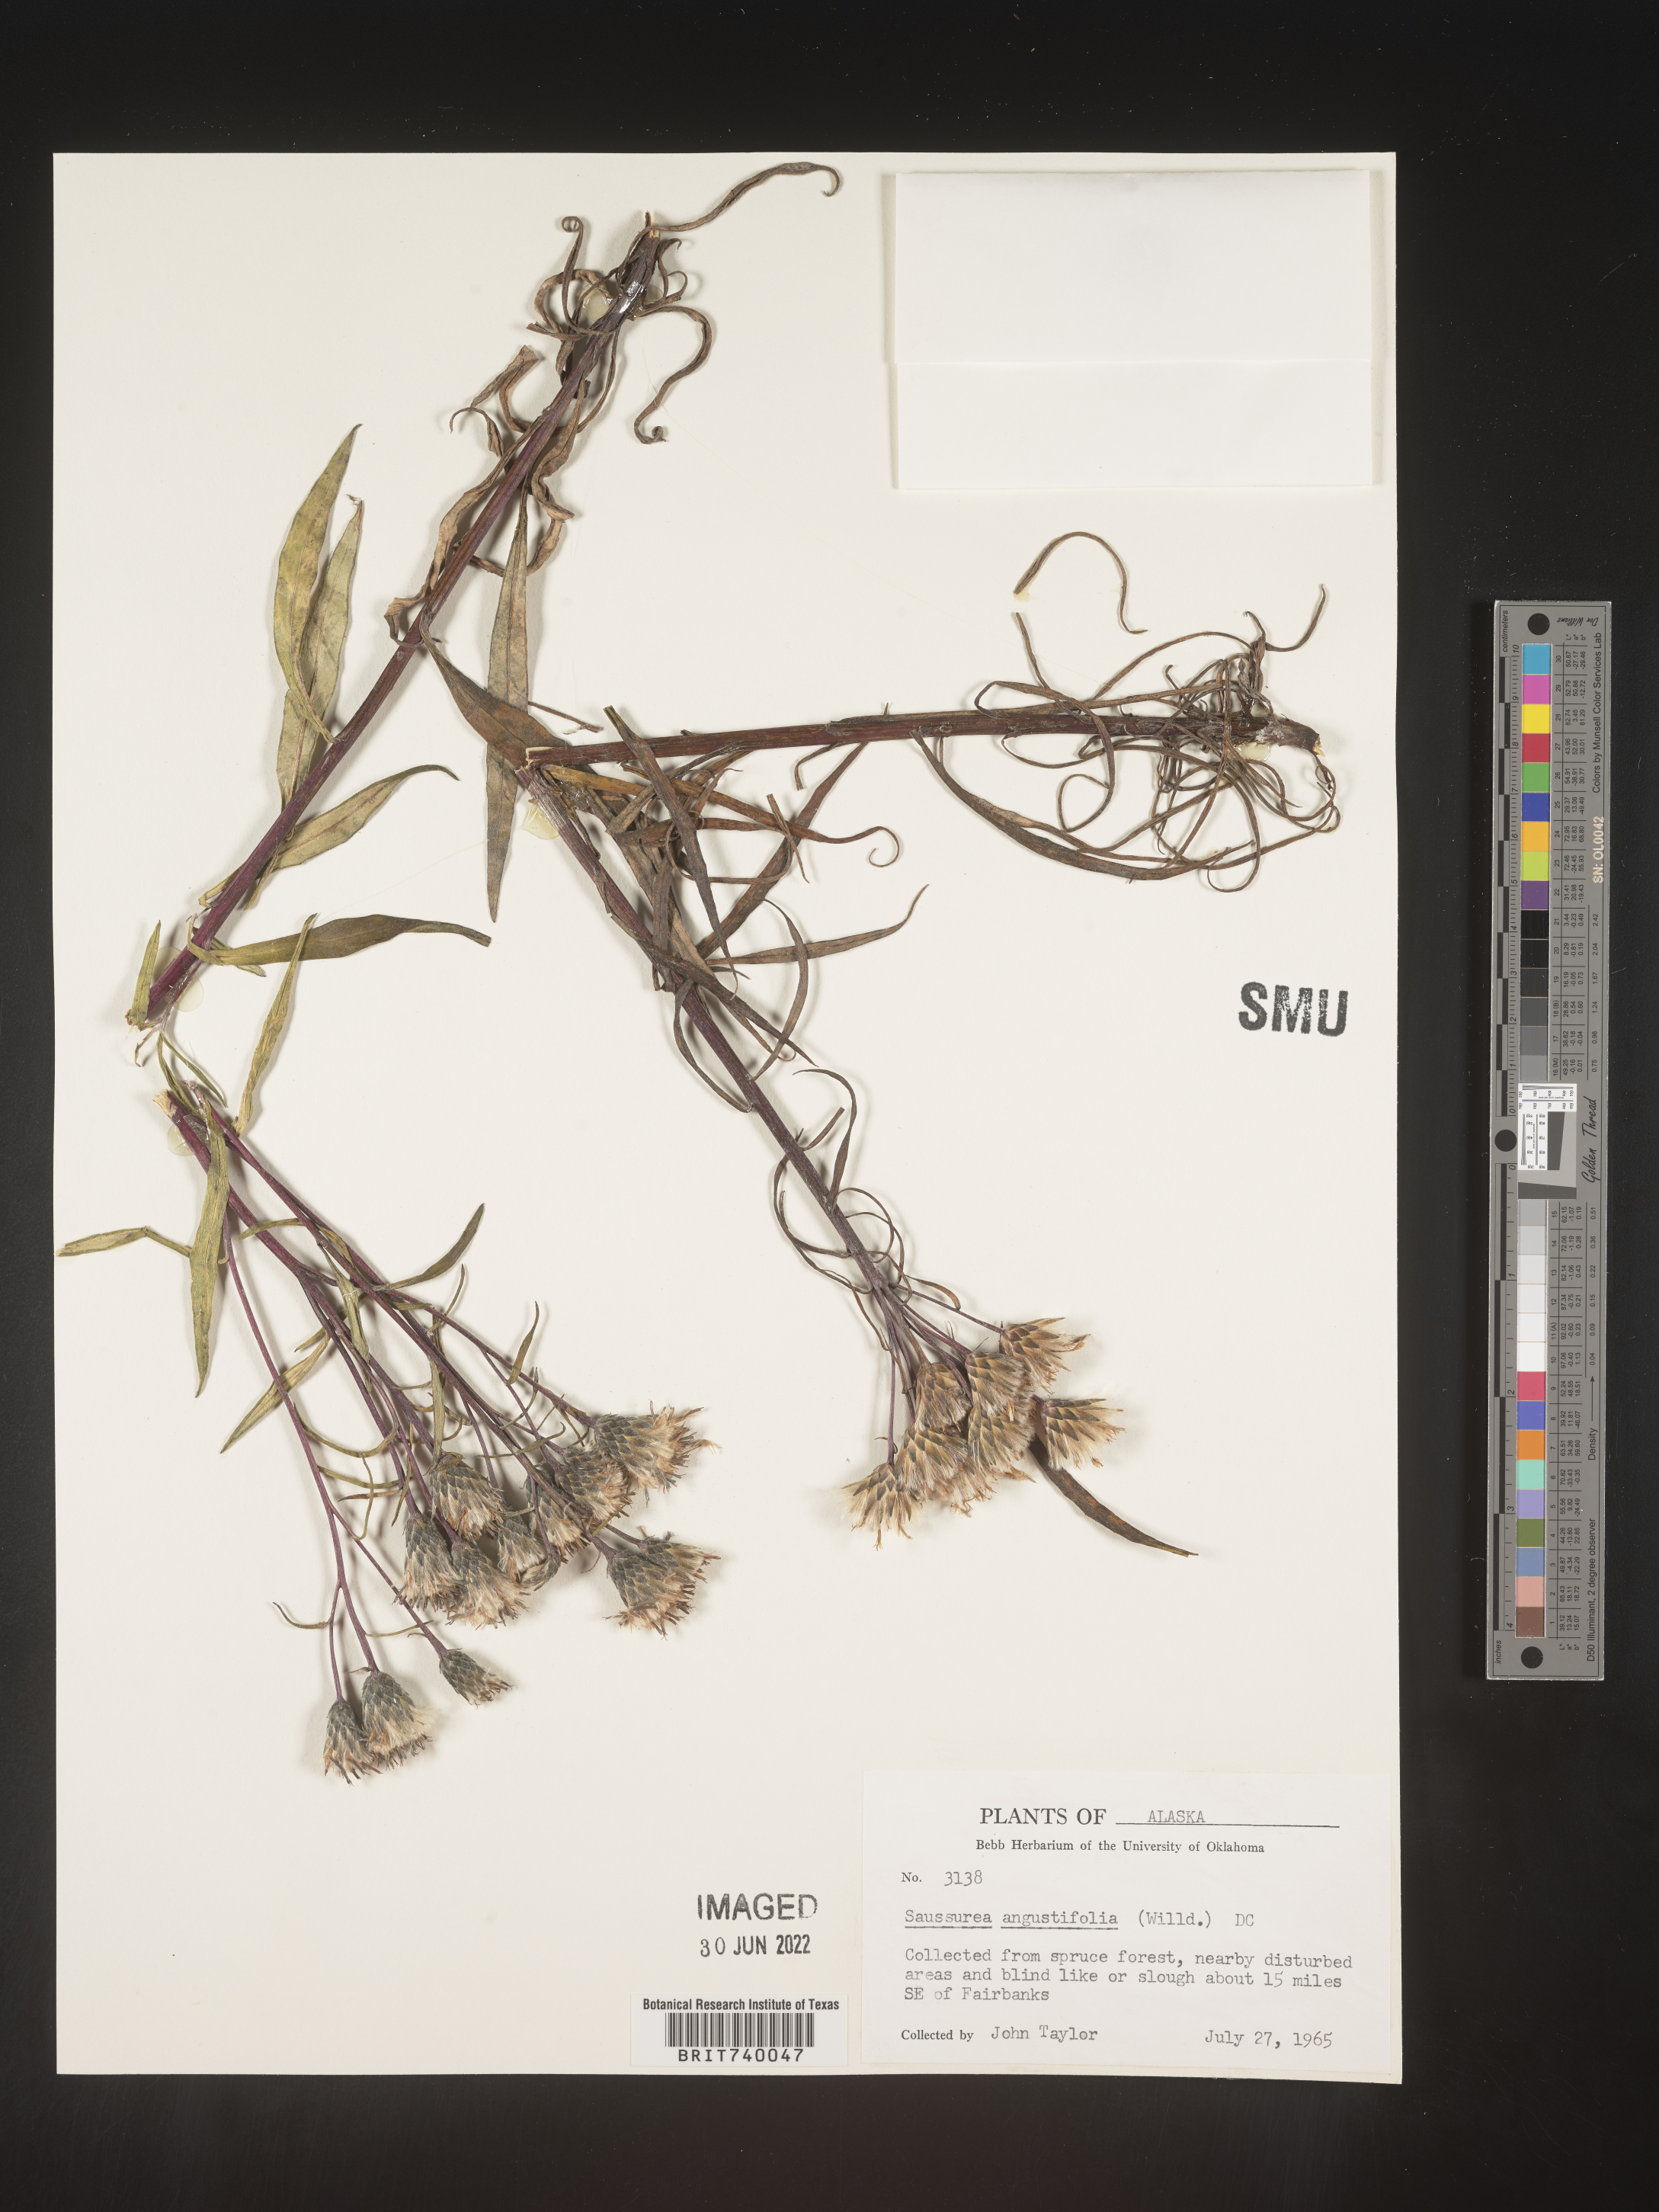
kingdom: Plantae
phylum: Tracheophyta
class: Magnoliopsida
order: Asterales
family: Asteraceae
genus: Saussurea
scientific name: Saussurea
